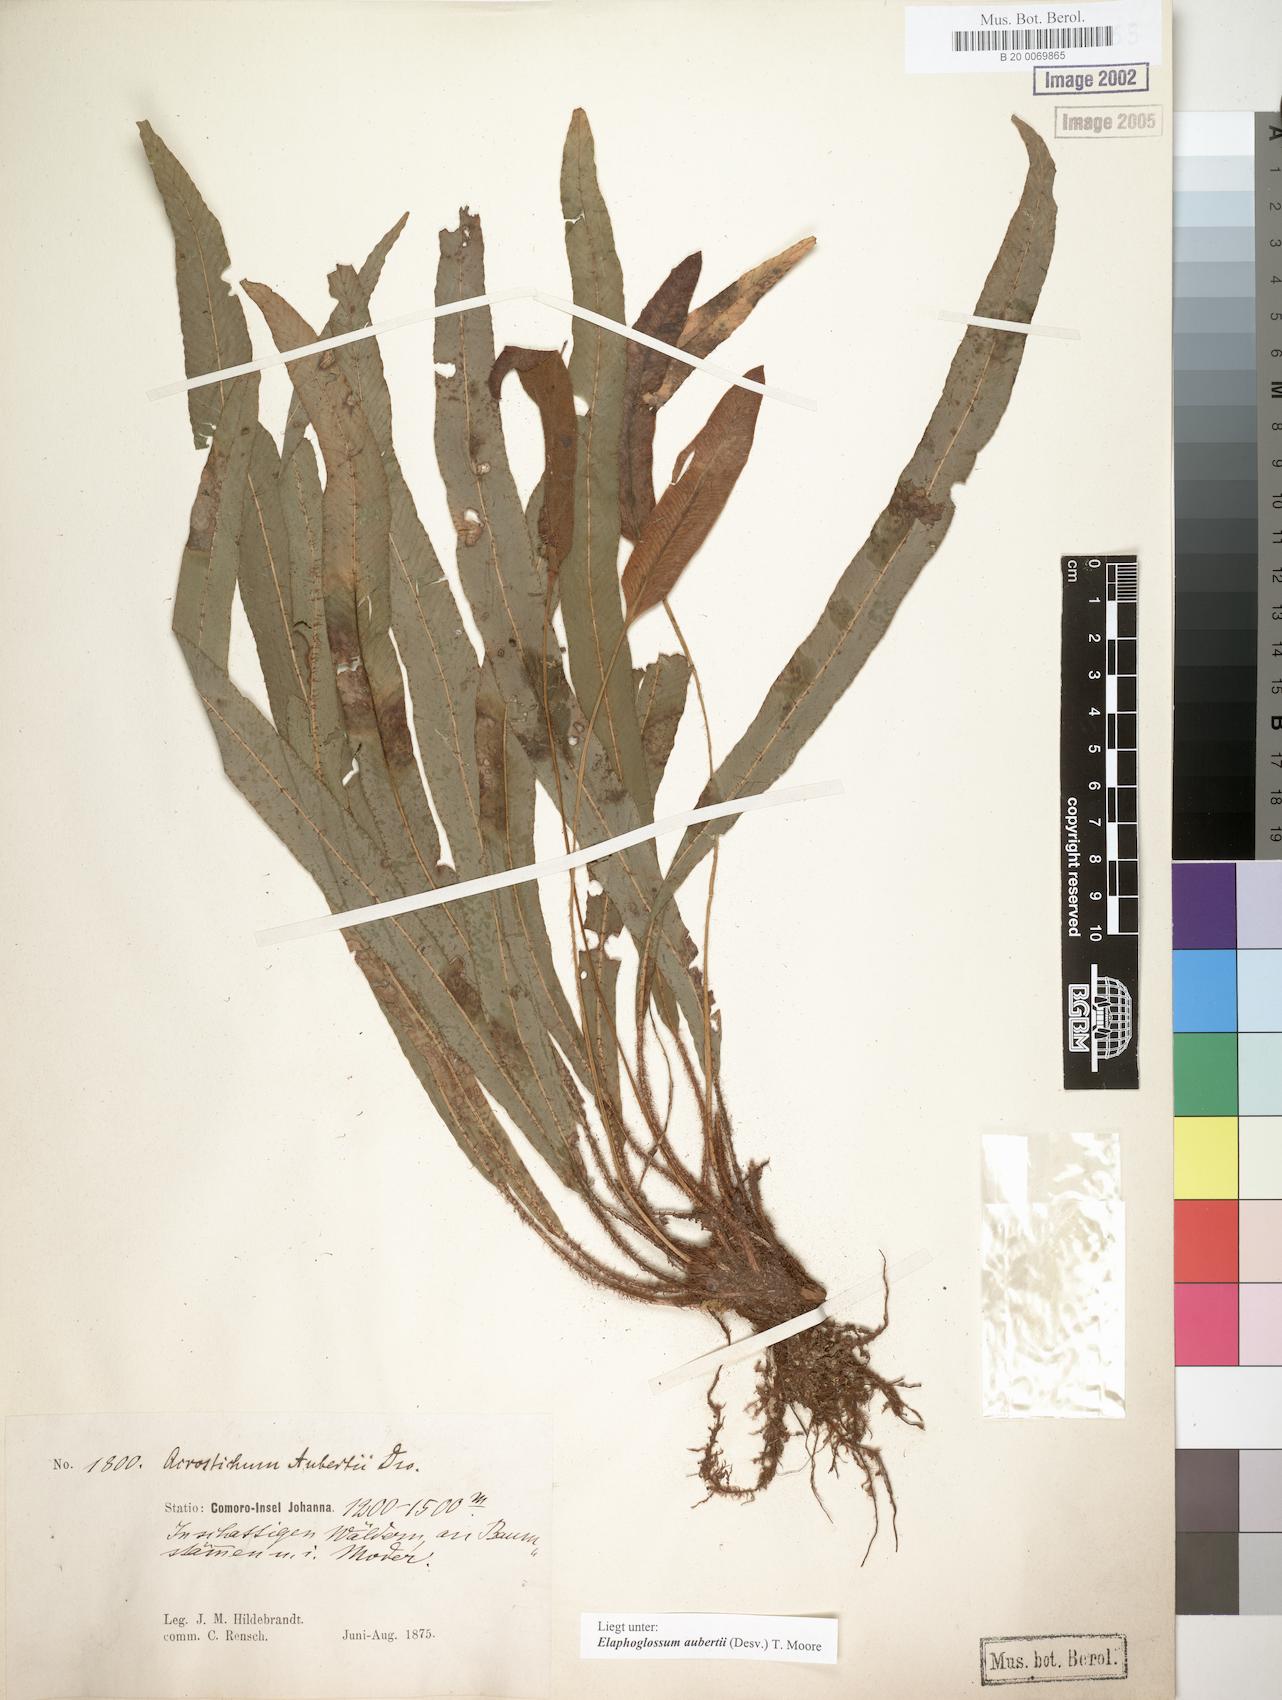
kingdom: Plantae
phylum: Tracheophyta
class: Polypodiopsida
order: Polypodiales
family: Dryopteridaceae
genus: Elaphoglossum
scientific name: Elaphoglossum aubertii
